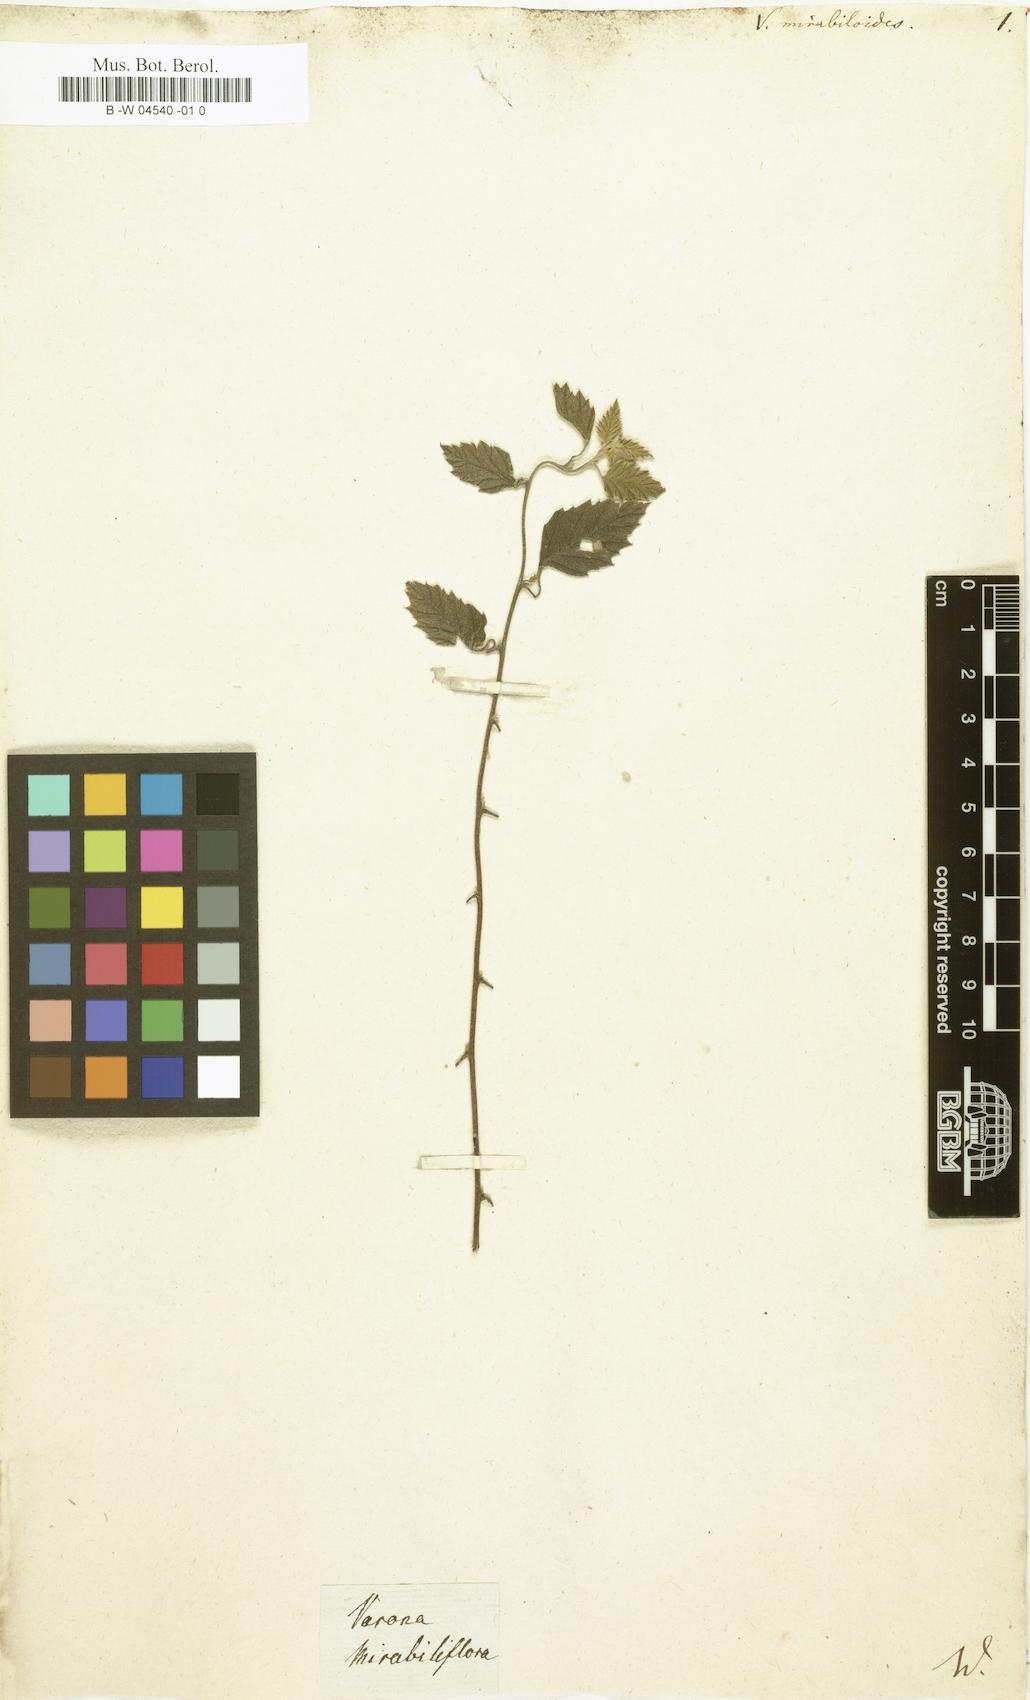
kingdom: Plantae
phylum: Tracheophyta
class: Magnoliopsida
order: Boraginales
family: Cordiaceae
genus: Varronia
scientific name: Varronia serrata
